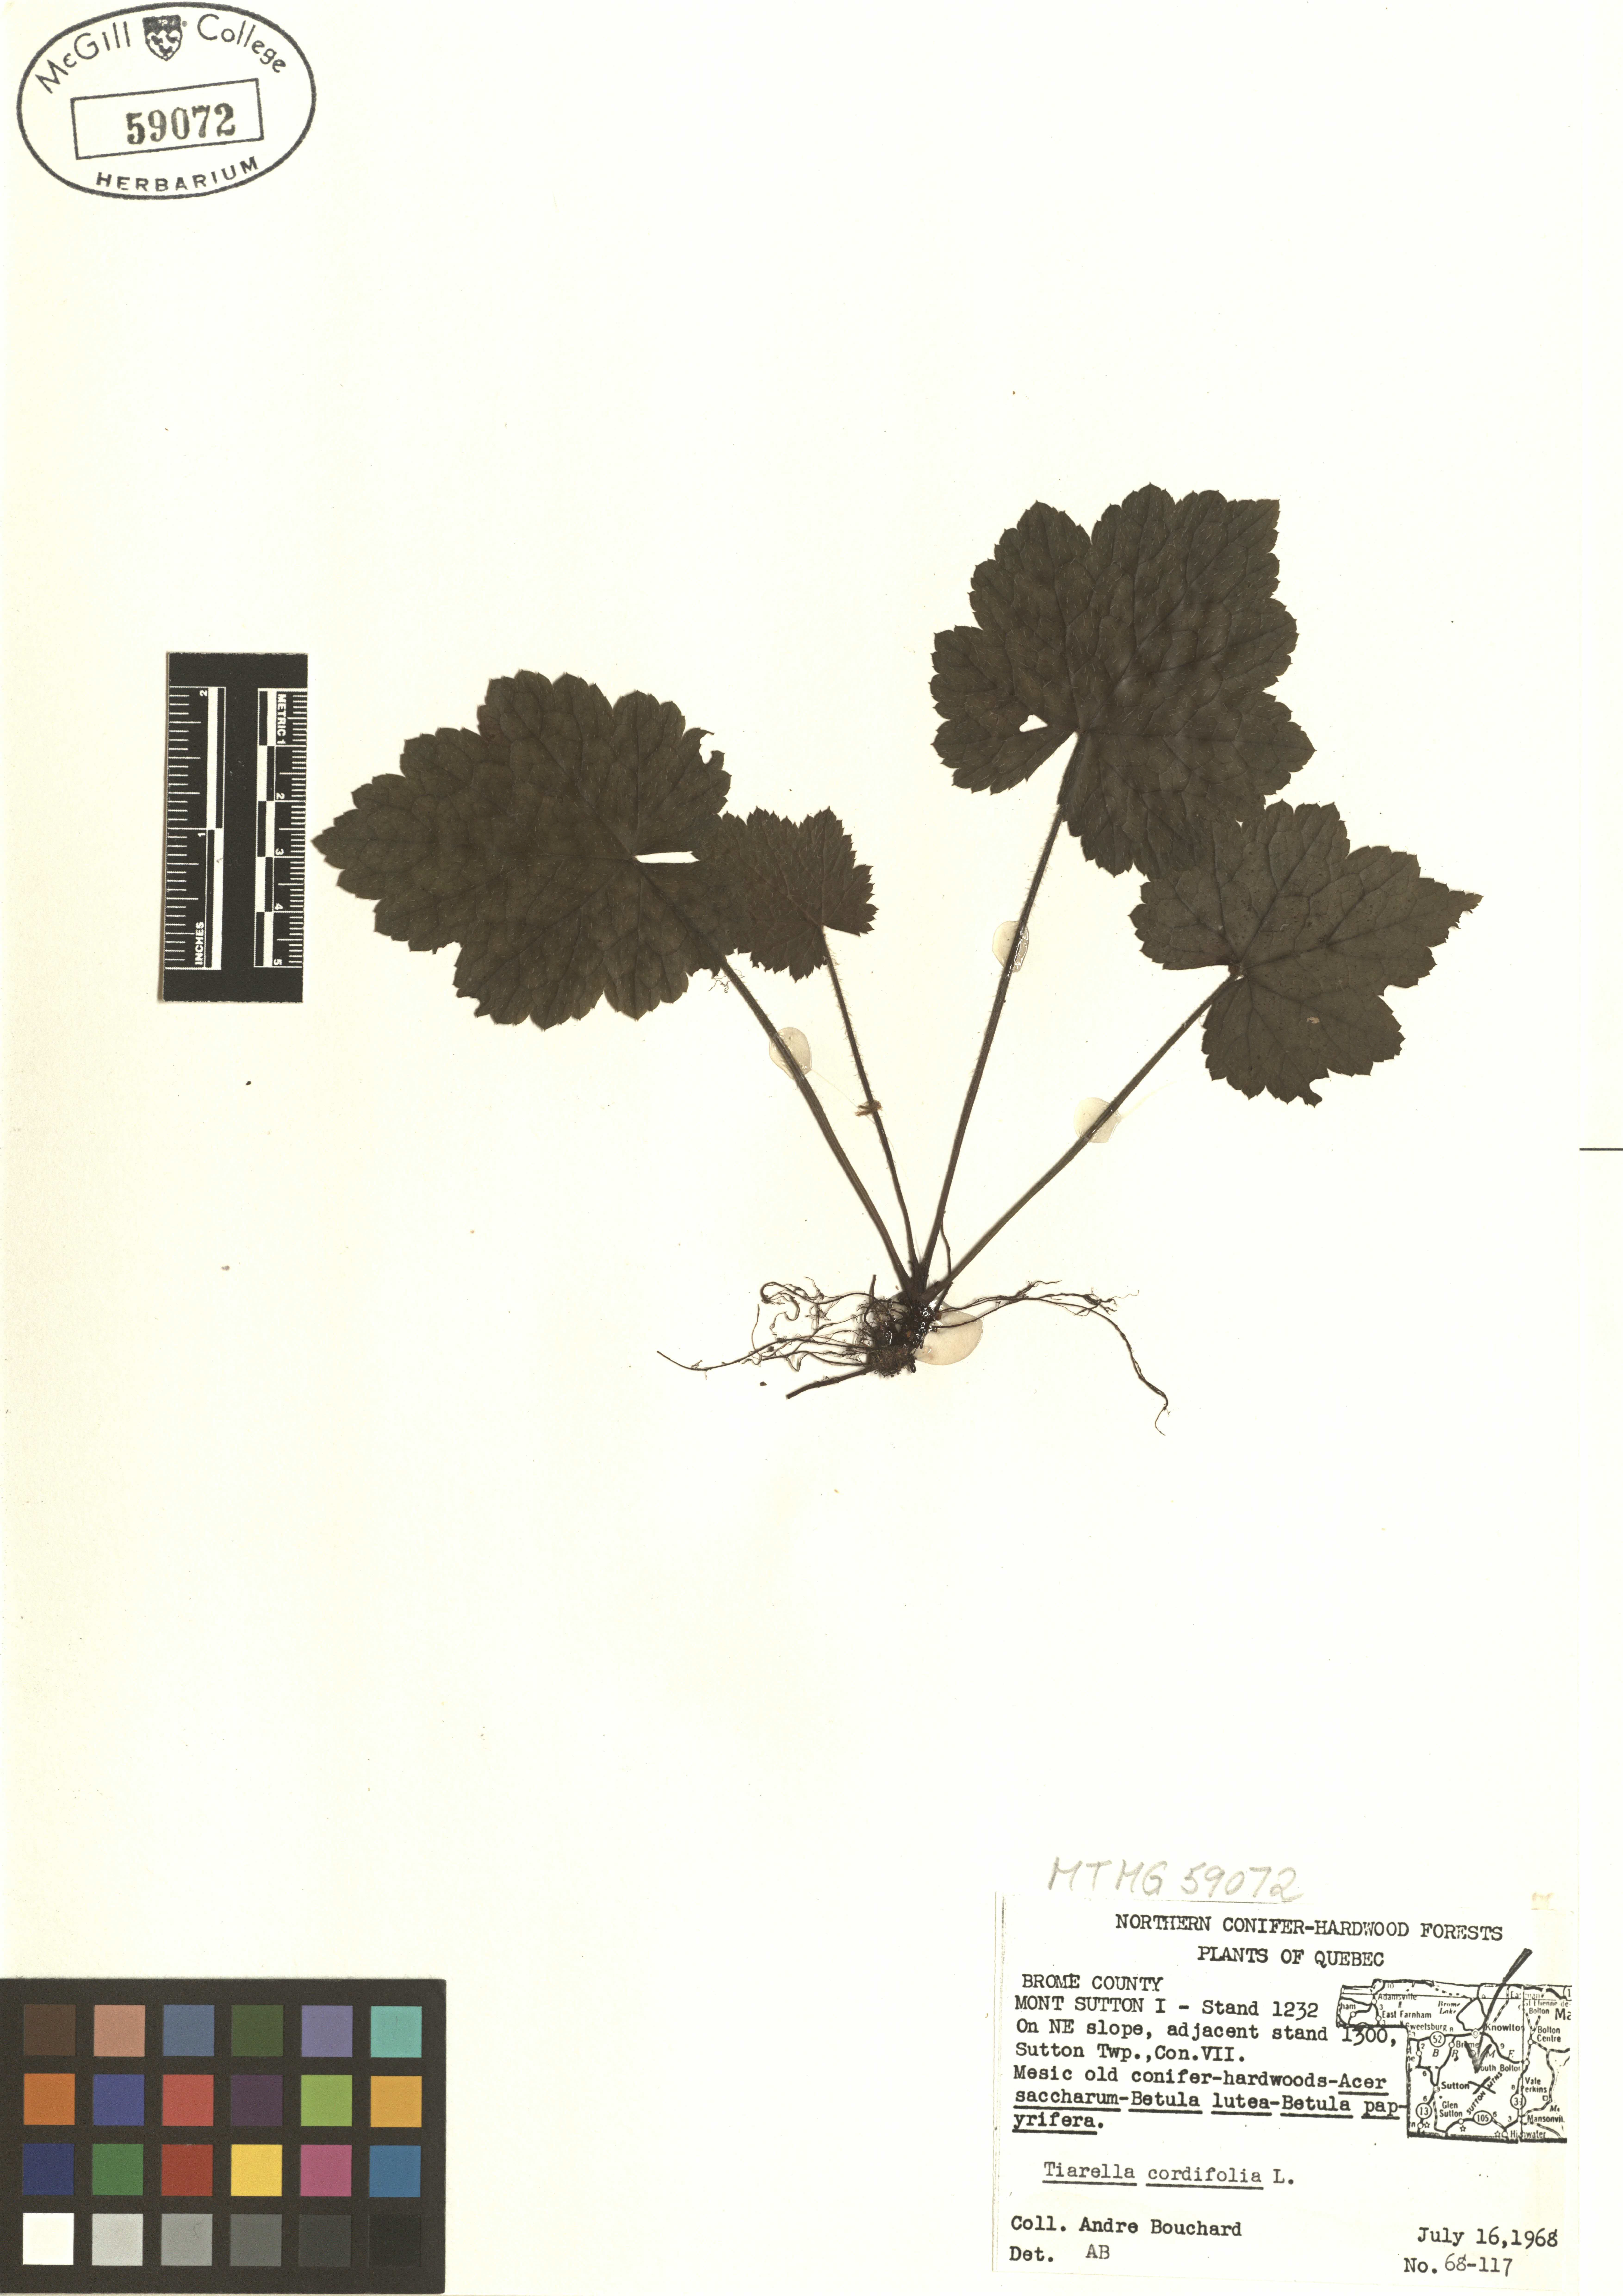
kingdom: Plantae
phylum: Tracheophyta
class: Magnoliopsida
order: Saxifragales
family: Saxifragaceae
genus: Tiarella
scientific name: Tiarella cordifolia
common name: Foamflower
